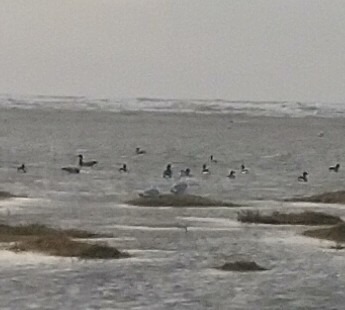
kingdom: Animalia
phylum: Chordata
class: Aves
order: Anseriformes
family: Anatidae
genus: Branta
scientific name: Branta bernicla
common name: Knortegås
